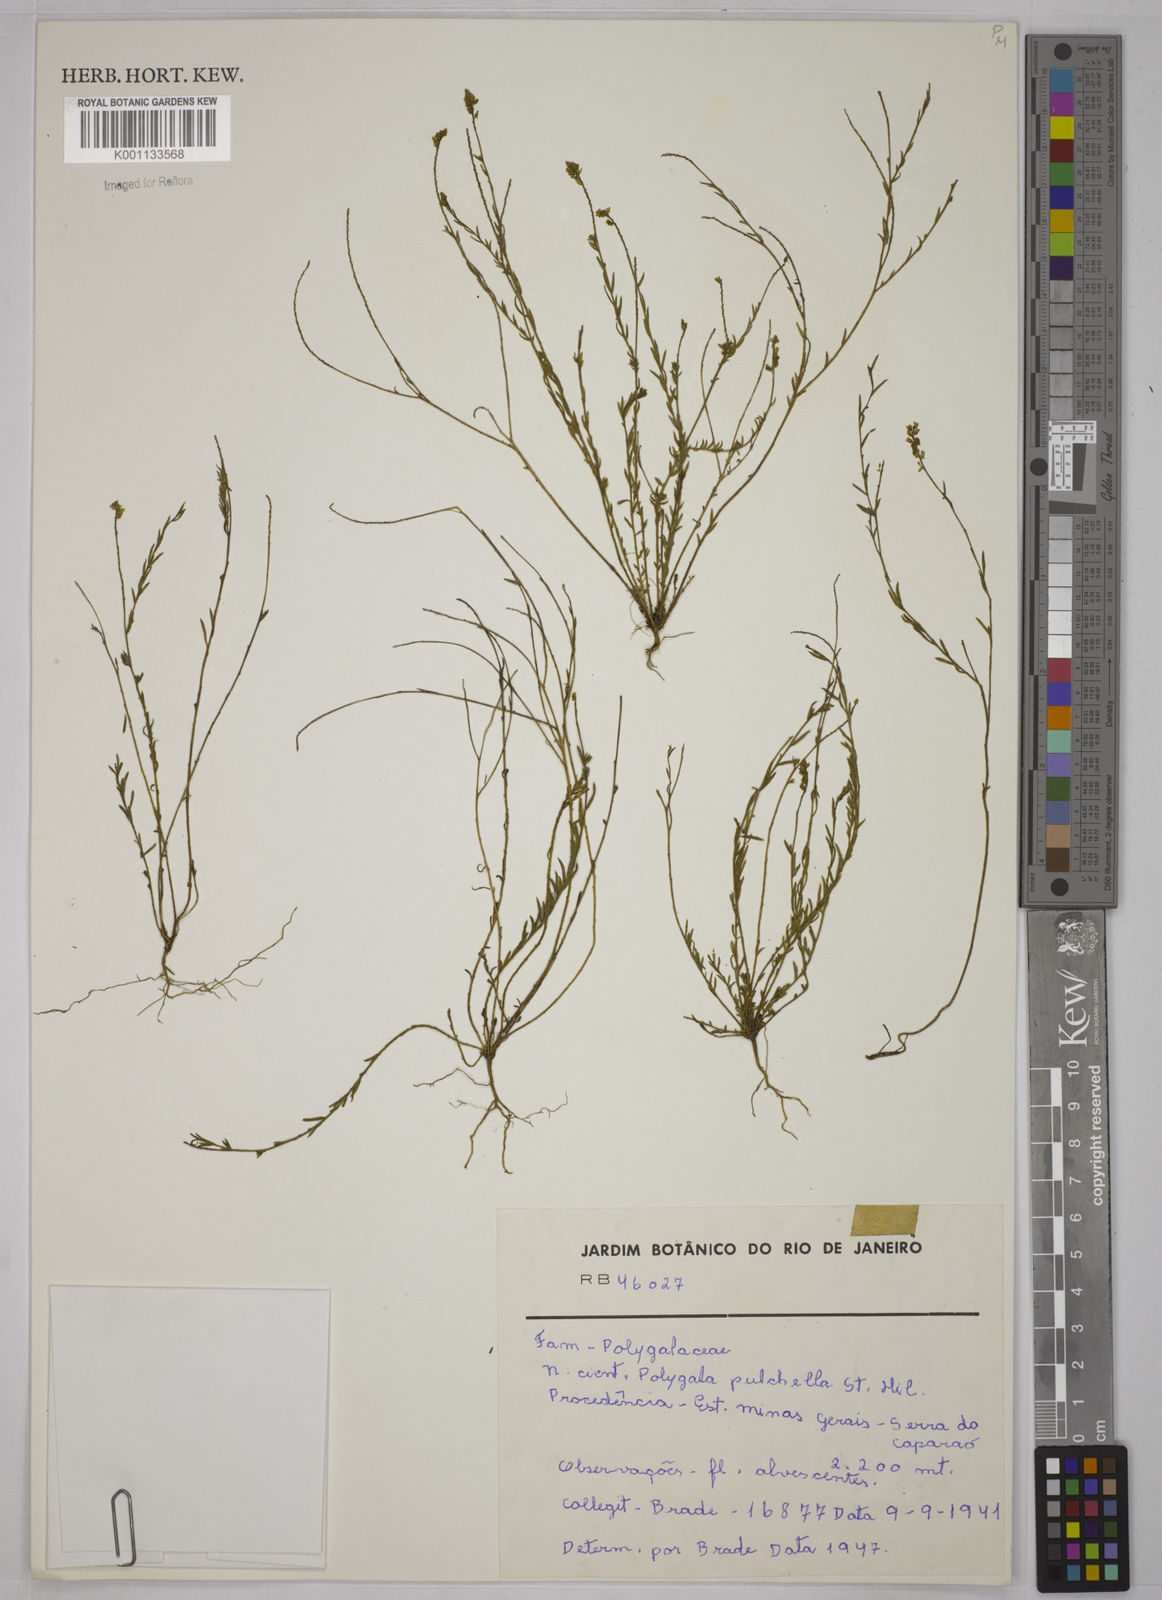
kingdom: Plantae
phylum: Tracheophyta
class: Magnoliopsida
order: Fabales
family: Polygalaceae
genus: Polygala
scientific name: Polygala pulchella
